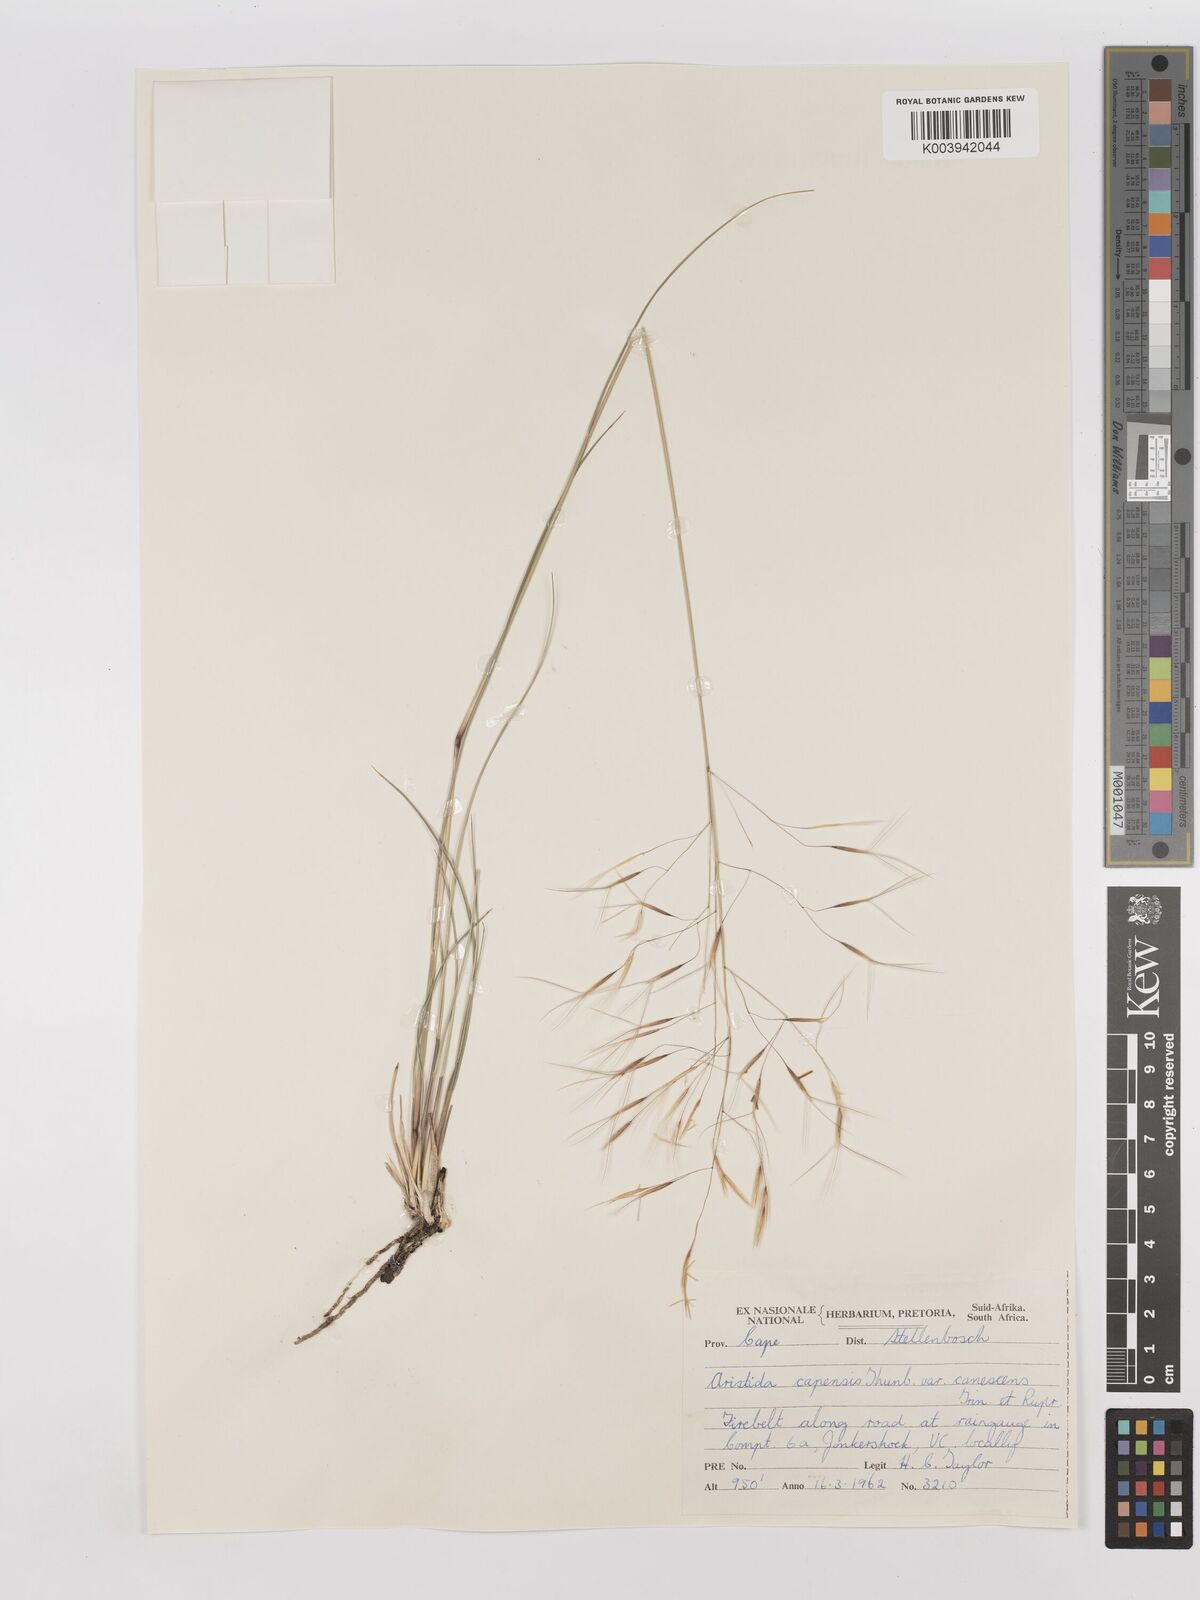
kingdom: Plantae
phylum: Tracheophyta
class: Liliopsida
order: Poales
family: Poaceae
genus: Stipagrostis
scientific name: Stipagrostis zeyheri
